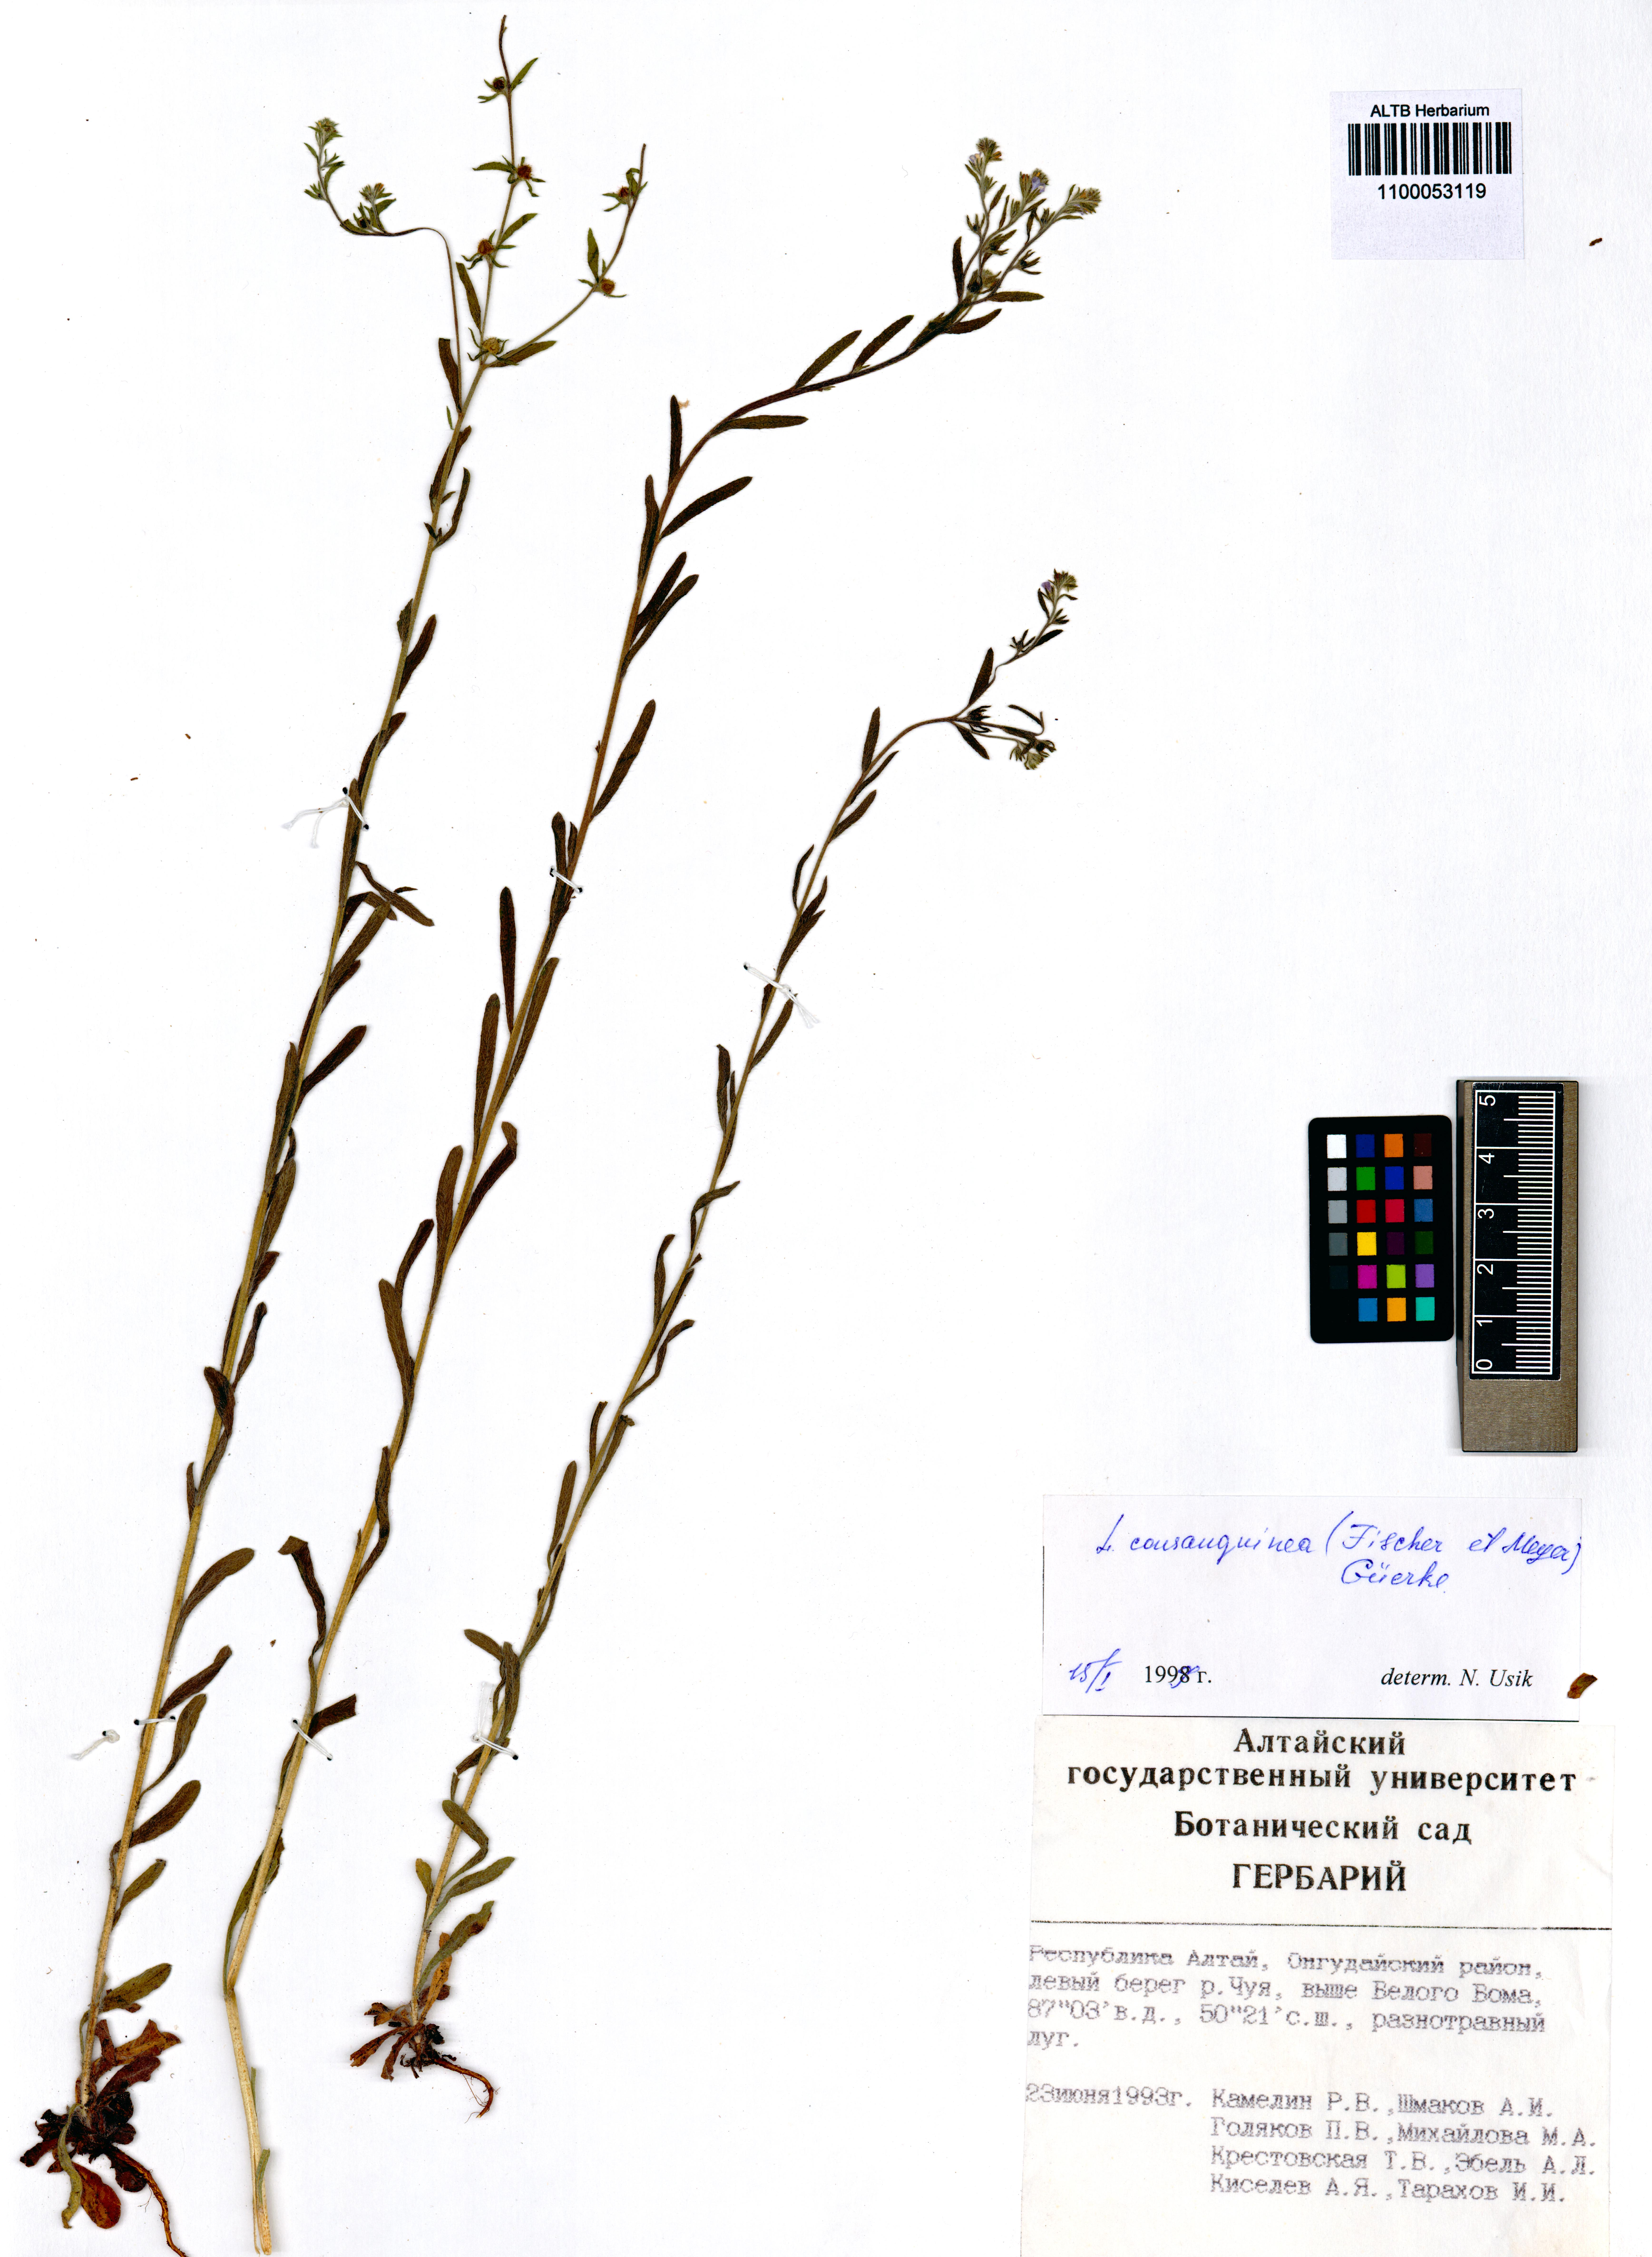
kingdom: Plantae
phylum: Tracheophyta
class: Magnoliopsida
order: Boraginales
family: Boraginaceae
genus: Lappula
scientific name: Lappula squarrosa
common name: European stickseed
